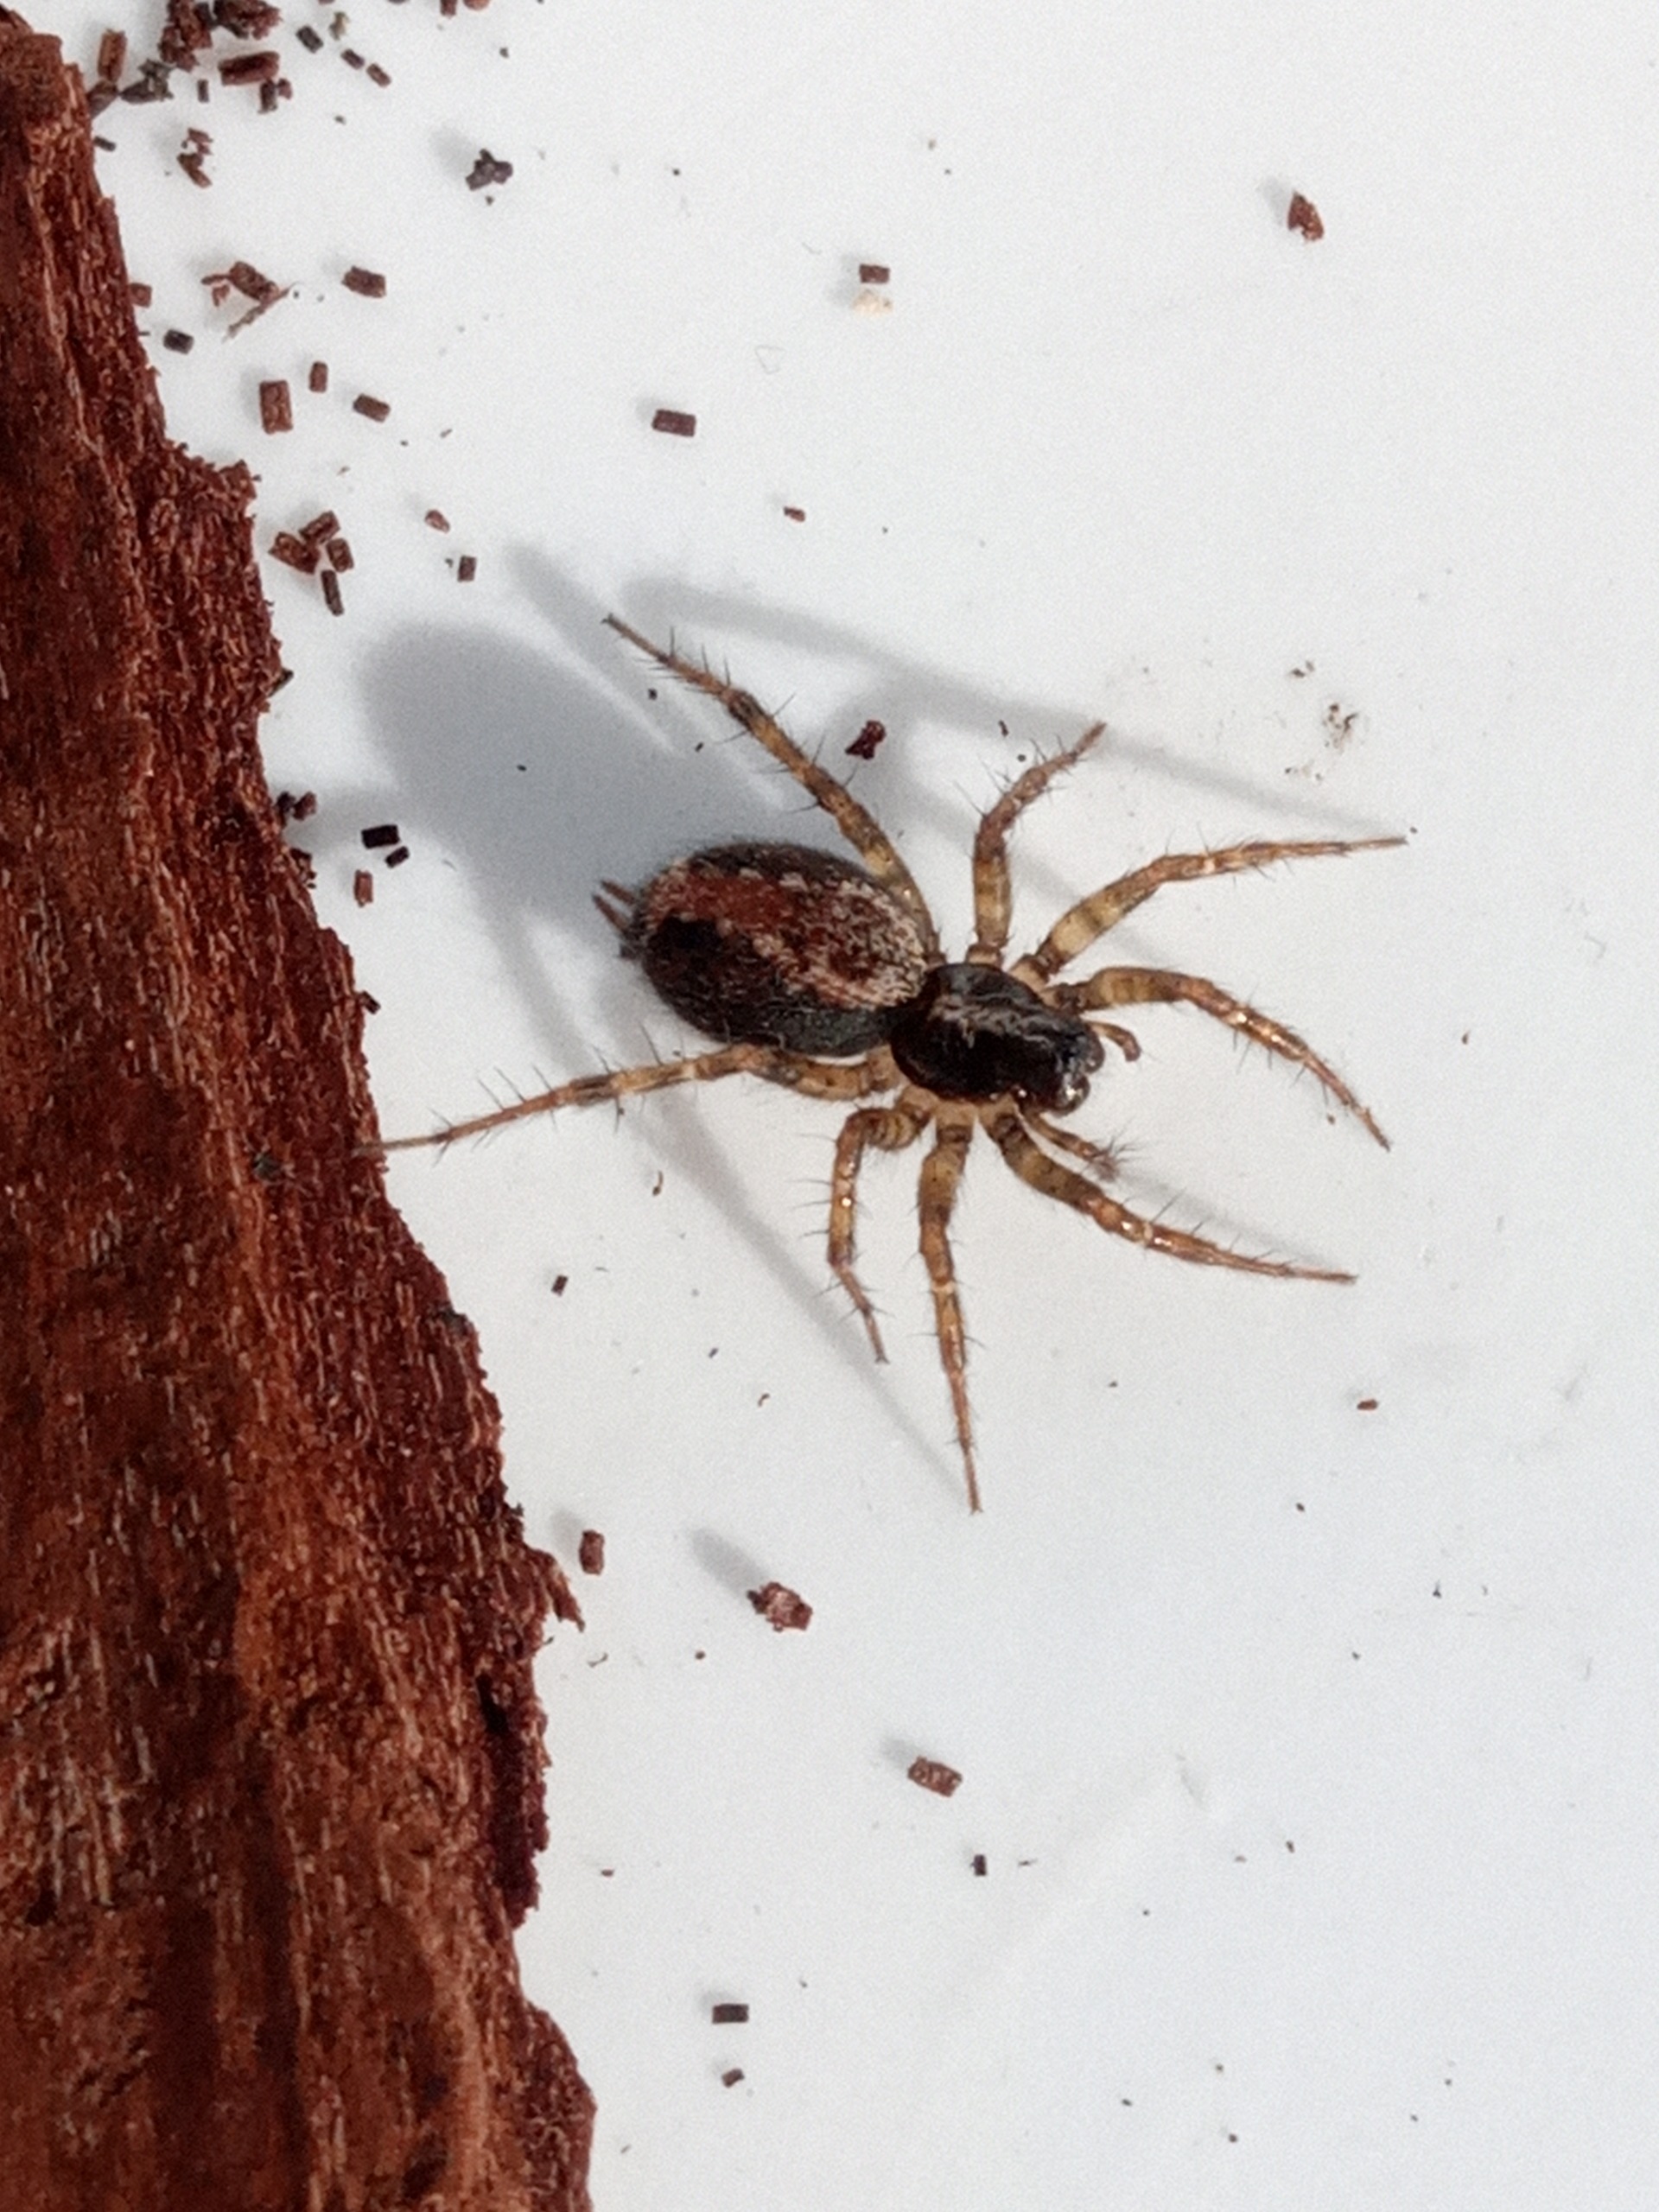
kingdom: Animalia
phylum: Arthropoda
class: Arachnida
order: Araneae
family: Agelenidae
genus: Textrix
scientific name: Textrix denticulata
